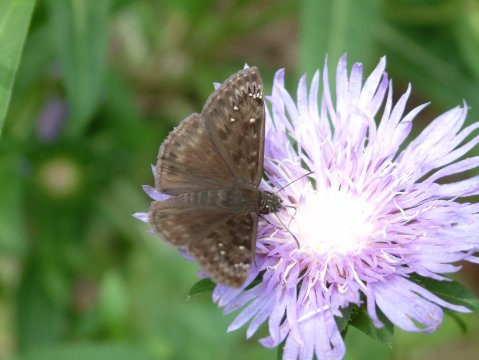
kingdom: Animalia
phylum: Arthropoda
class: Insecta
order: Lepidoptera
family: Hesperiidae
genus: Gesta
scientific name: Gesta
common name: Horace's Duskywing
